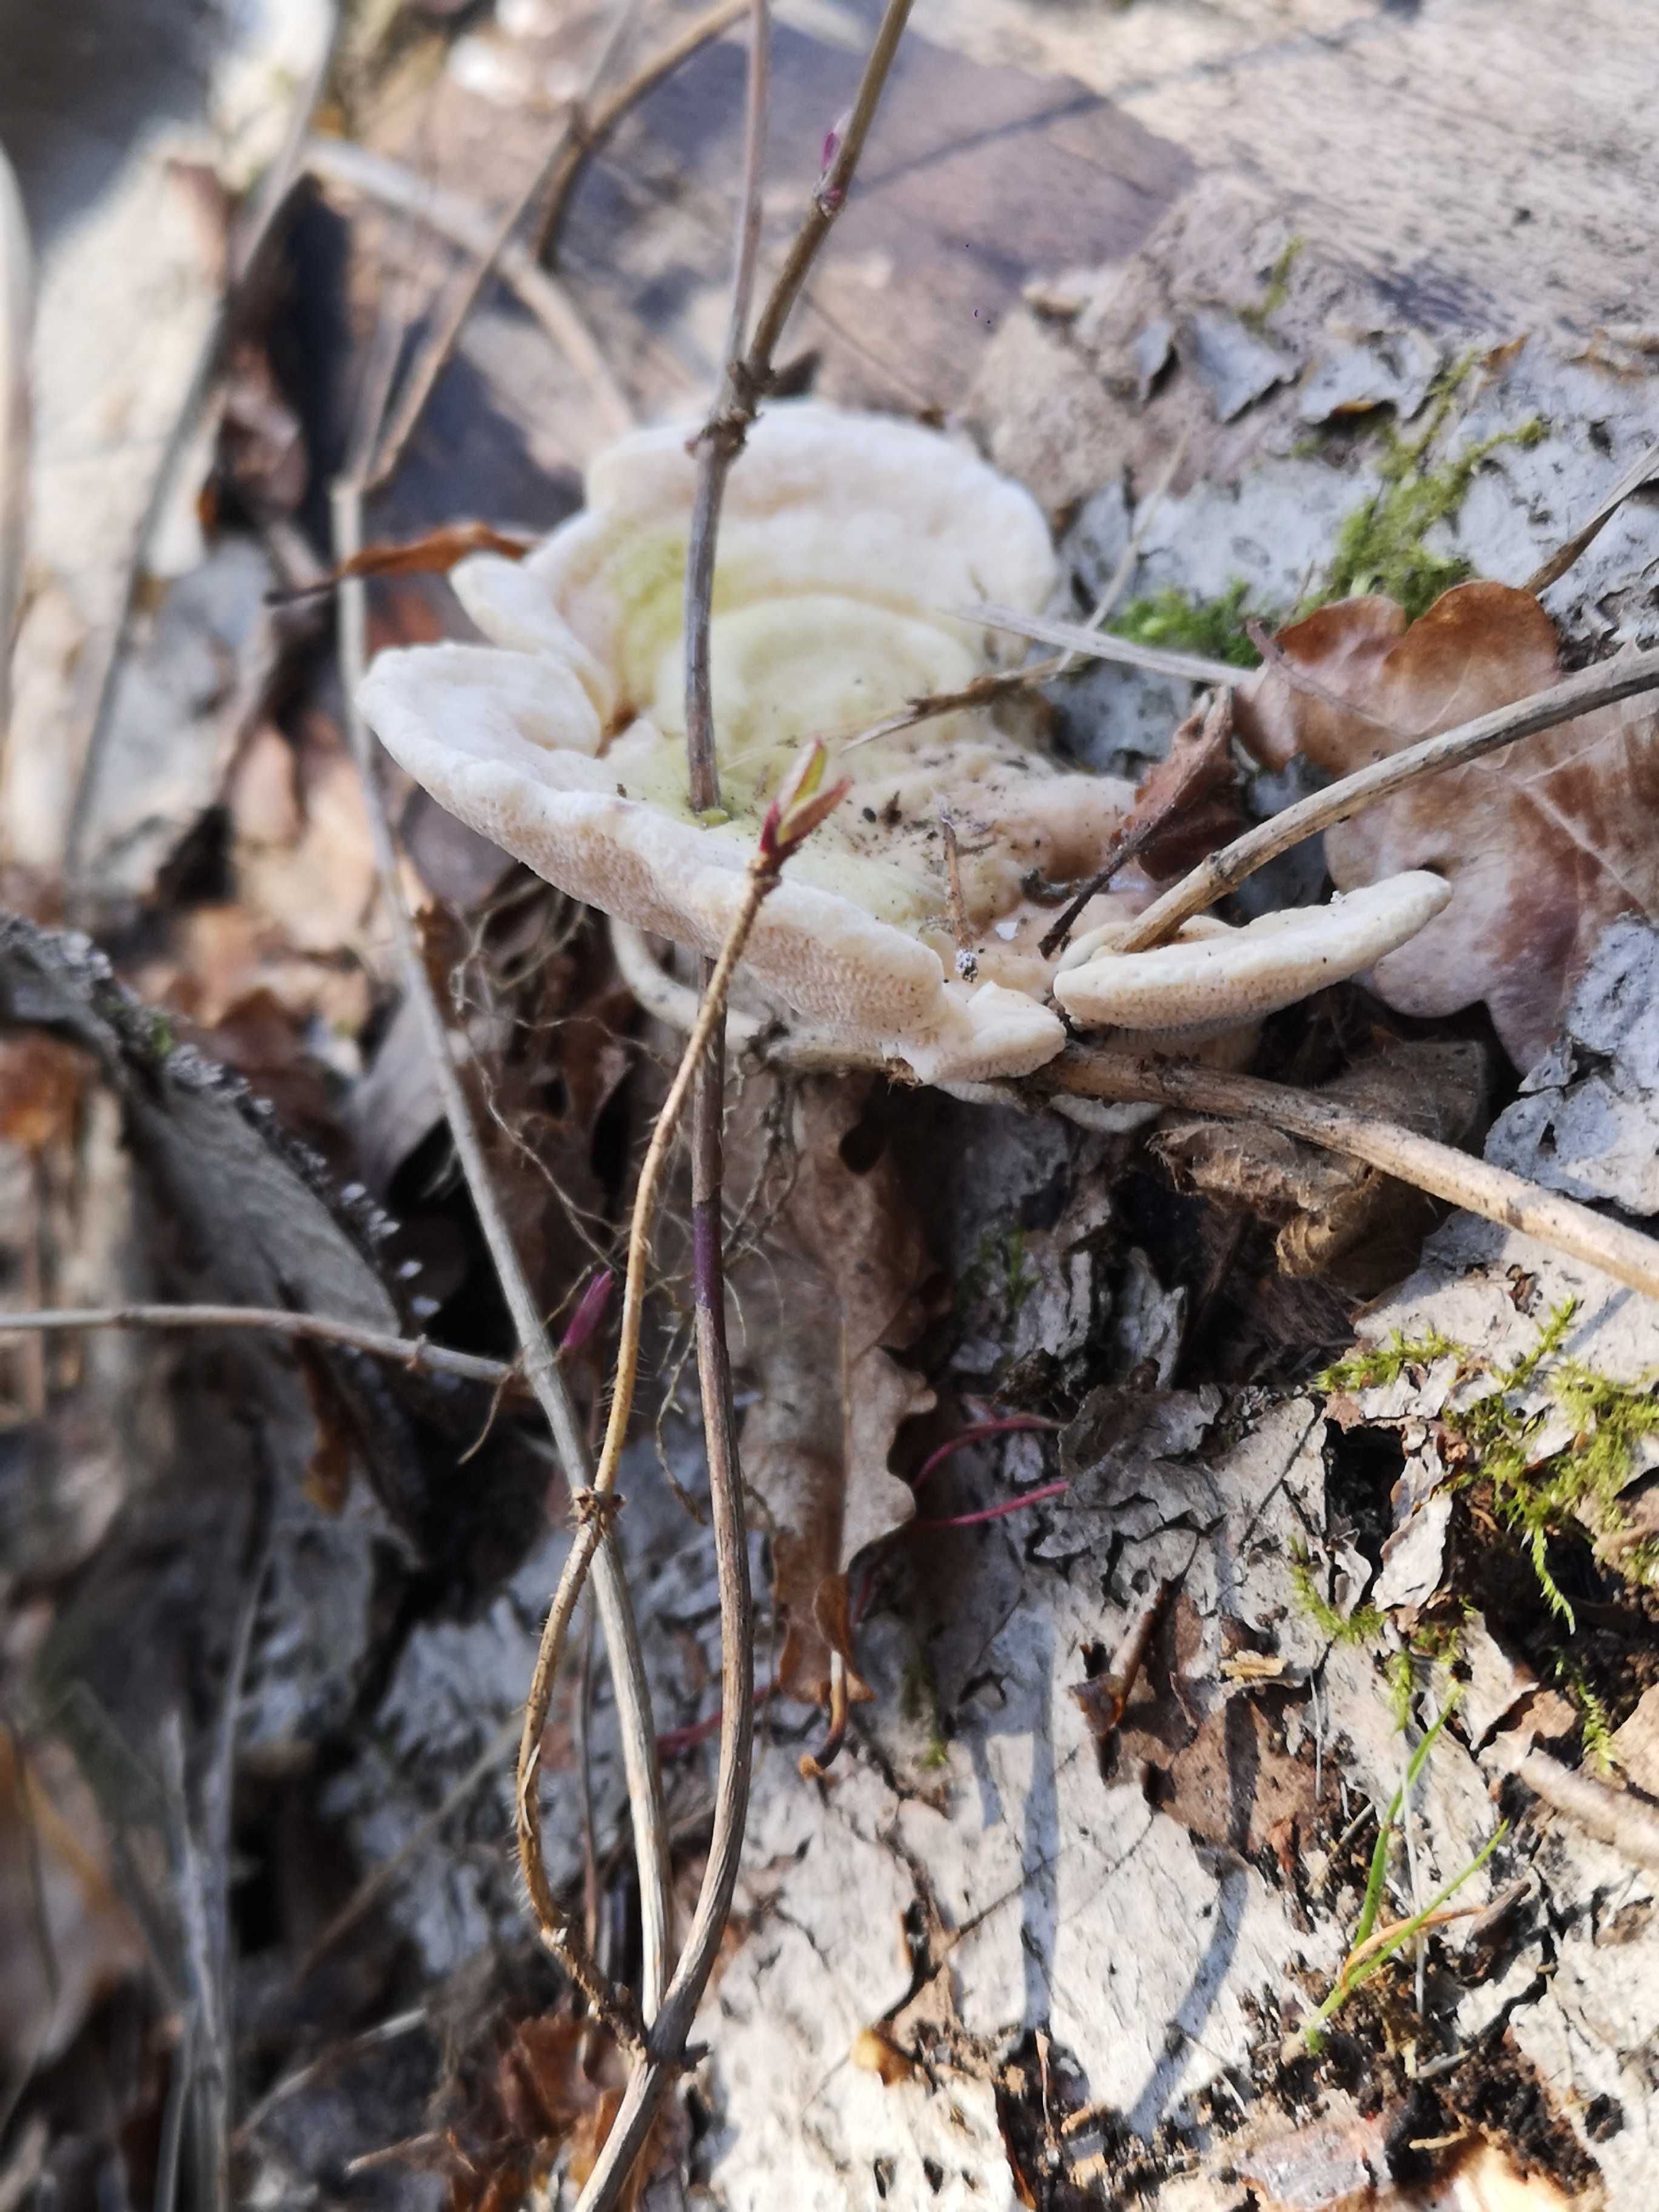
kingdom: Fungi
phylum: Basidiomycota
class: Agaricomycetes
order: Polyporales
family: Polyporaceae
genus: Trametes
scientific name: Trametes gibbosa
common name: puklet læderporesvamp
